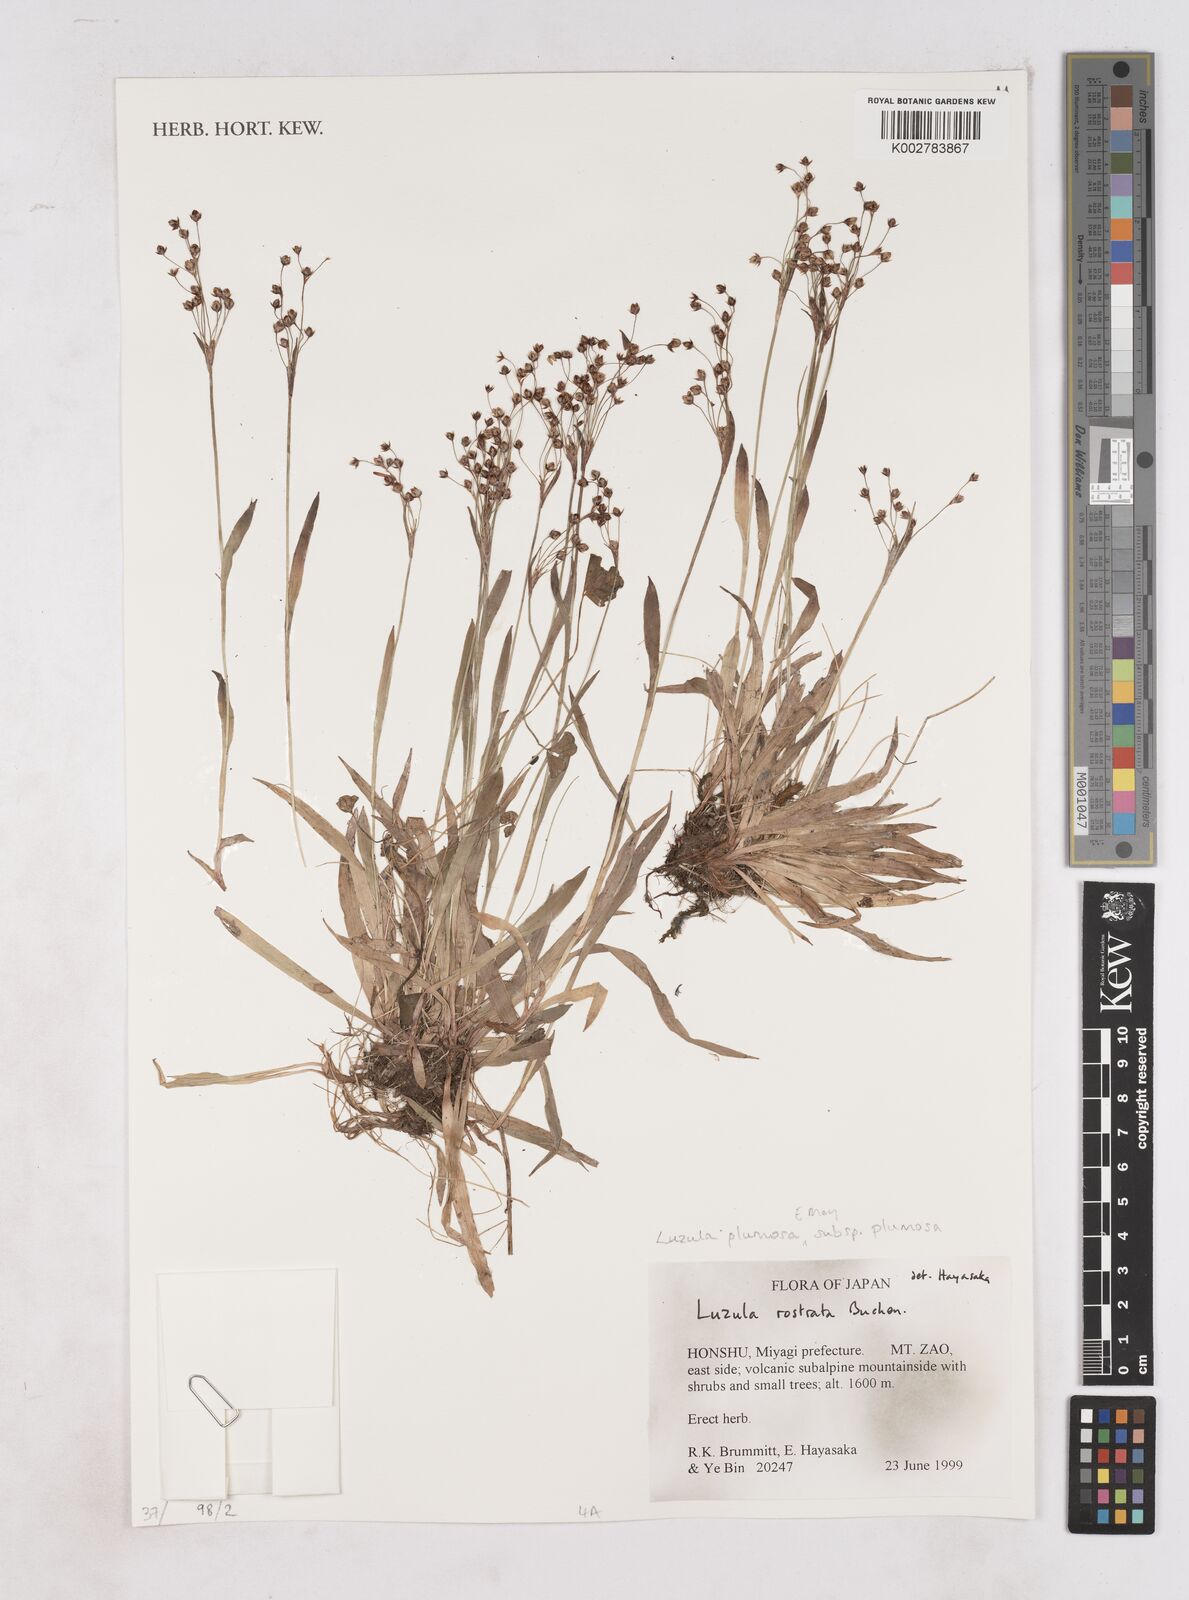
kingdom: Plantae
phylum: Tracheophyta
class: Liliopsida
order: Poales
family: Juncaceae
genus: Luzula
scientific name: Luzula plumosa
